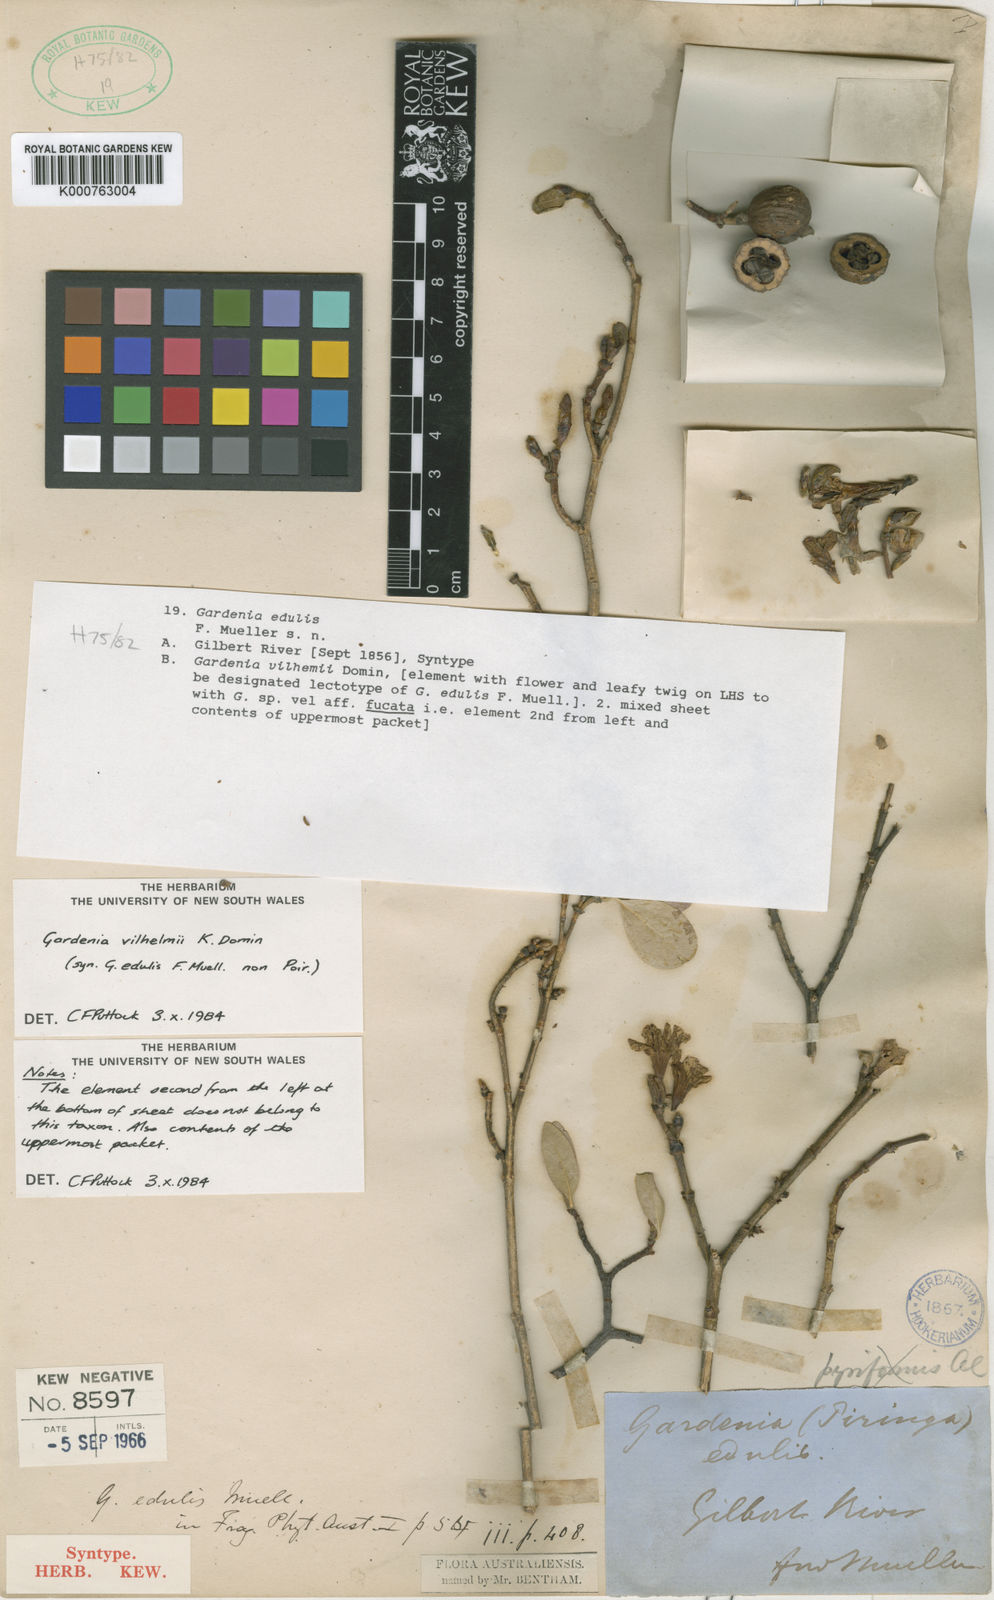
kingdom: Plantae
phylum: Tracheophyta
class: Magnoliopsida
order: Gentianales
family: Rubiaceae
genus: Gardenia
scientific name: Gardenia vilhelmii
